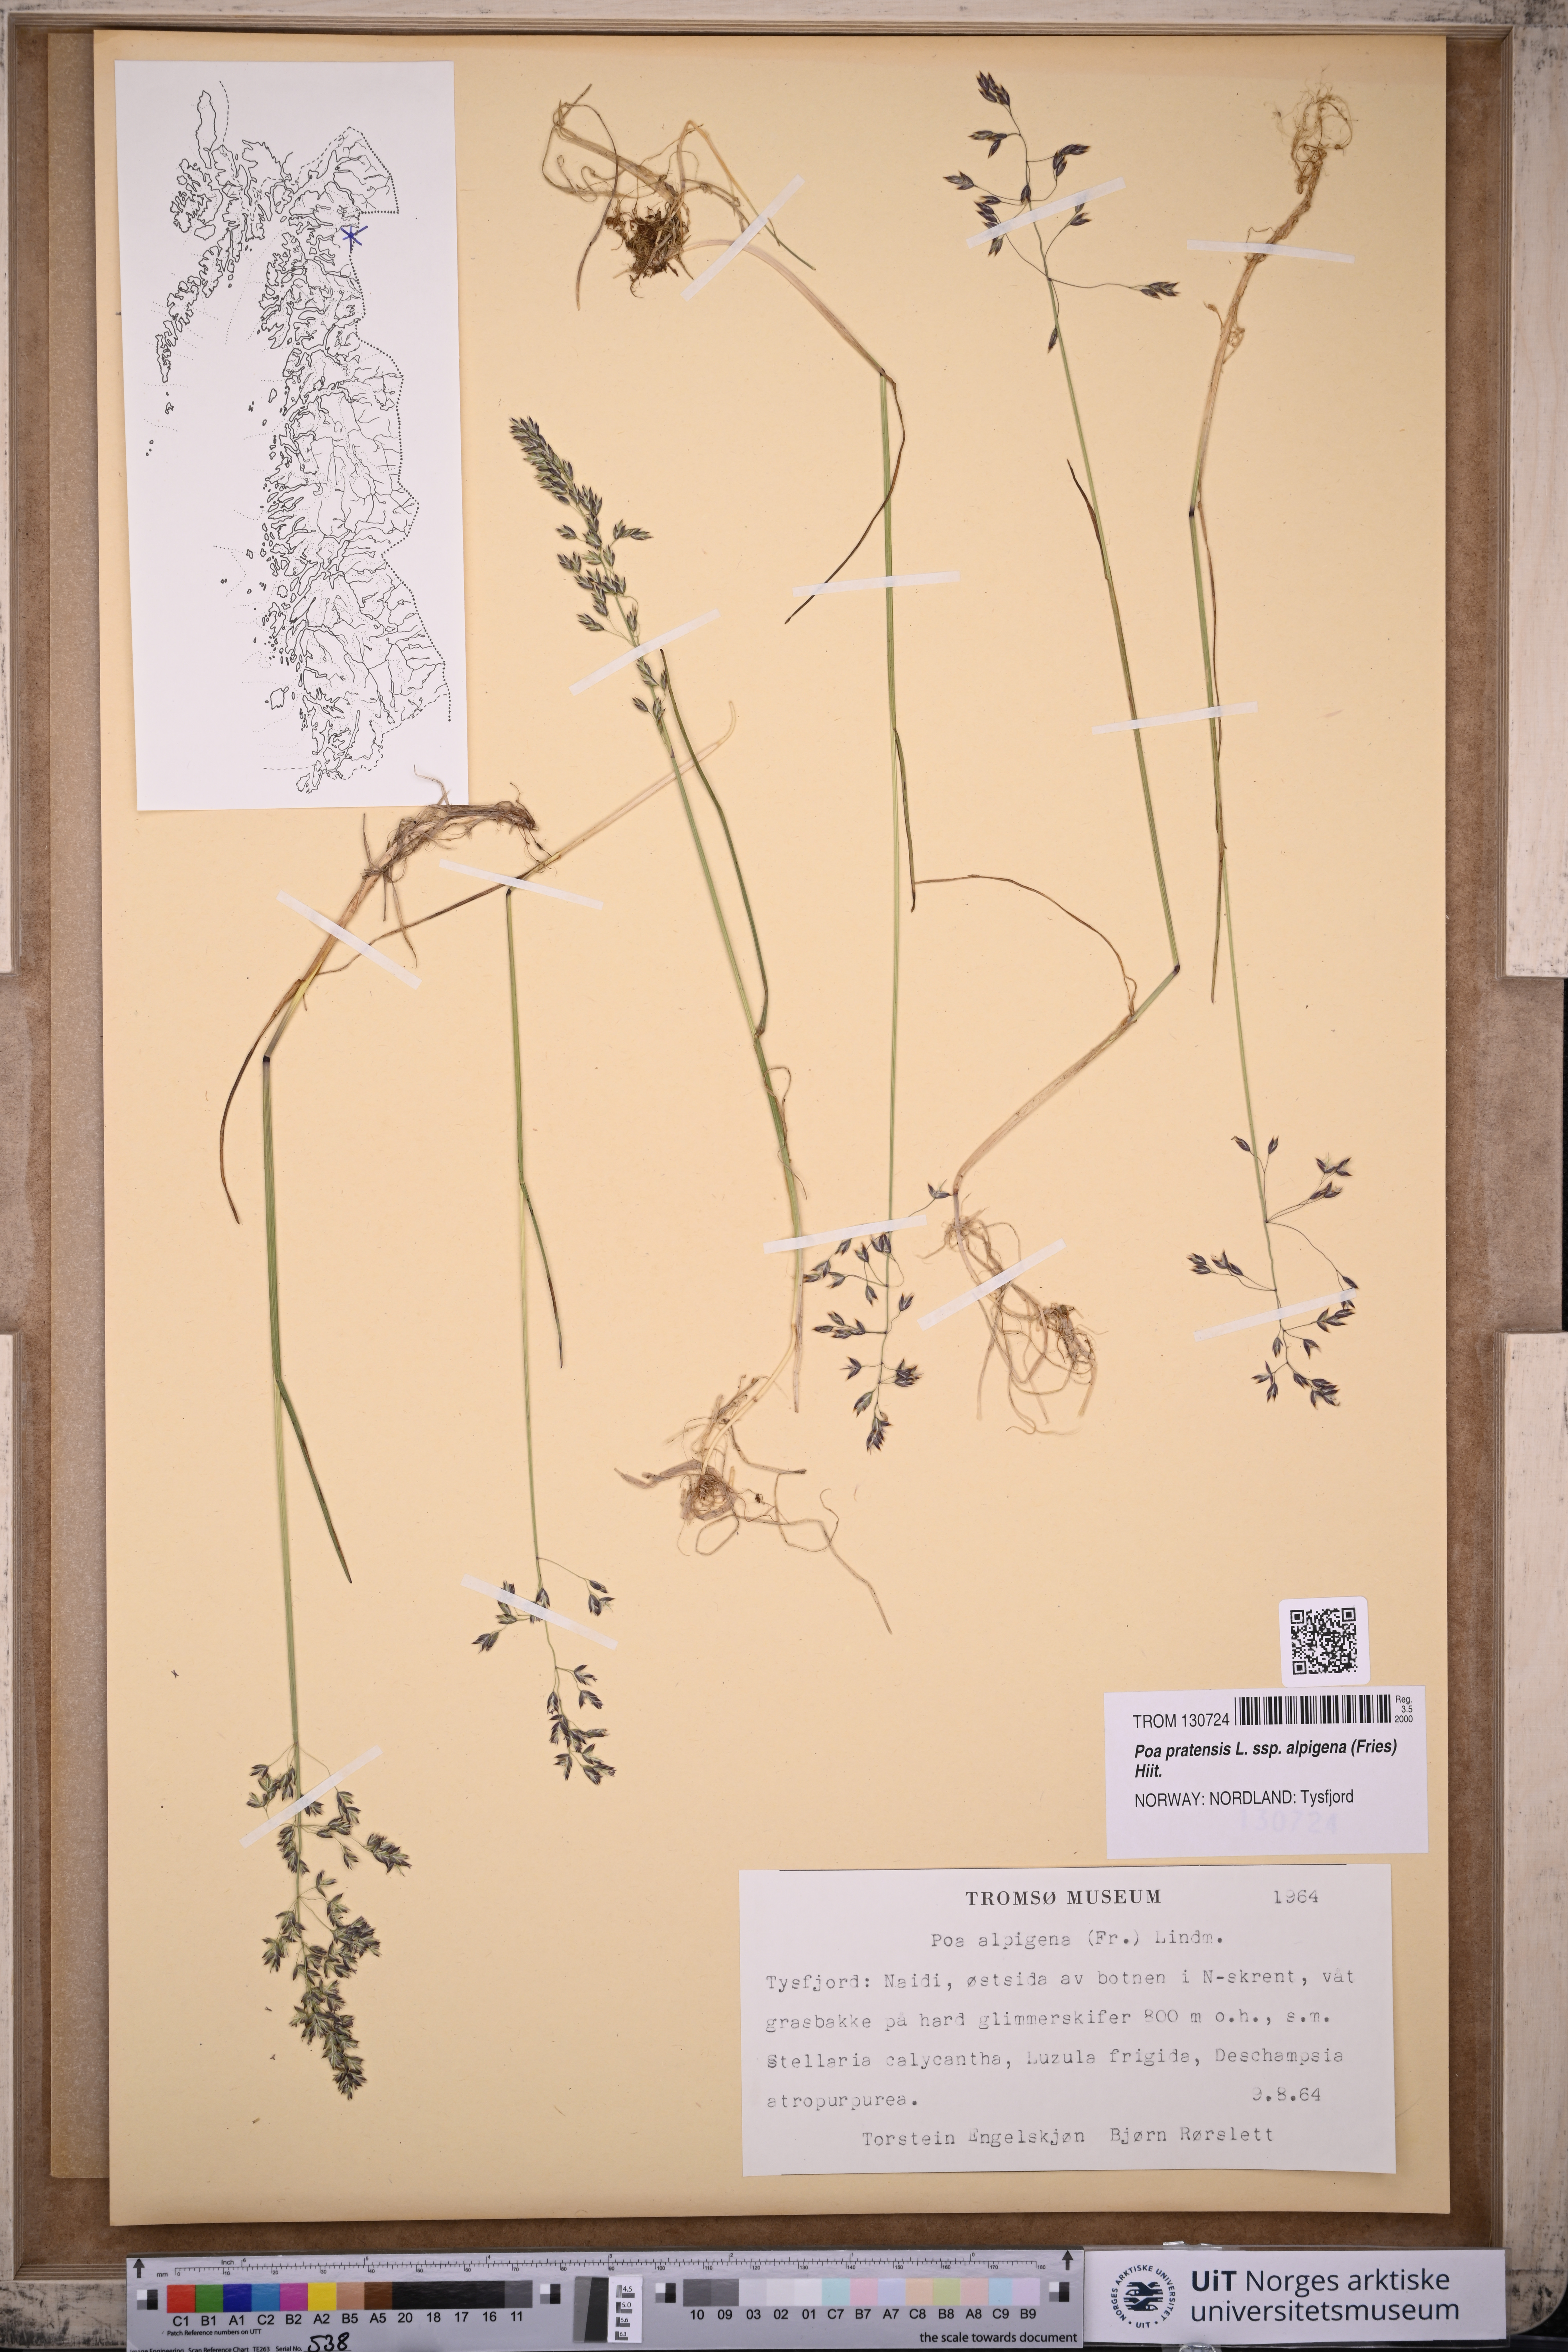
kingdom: Plantae
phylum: Tracheophyta
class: Liliopsida
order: Poales
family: Poaceae
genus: Poa
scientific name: Poa alpigena
